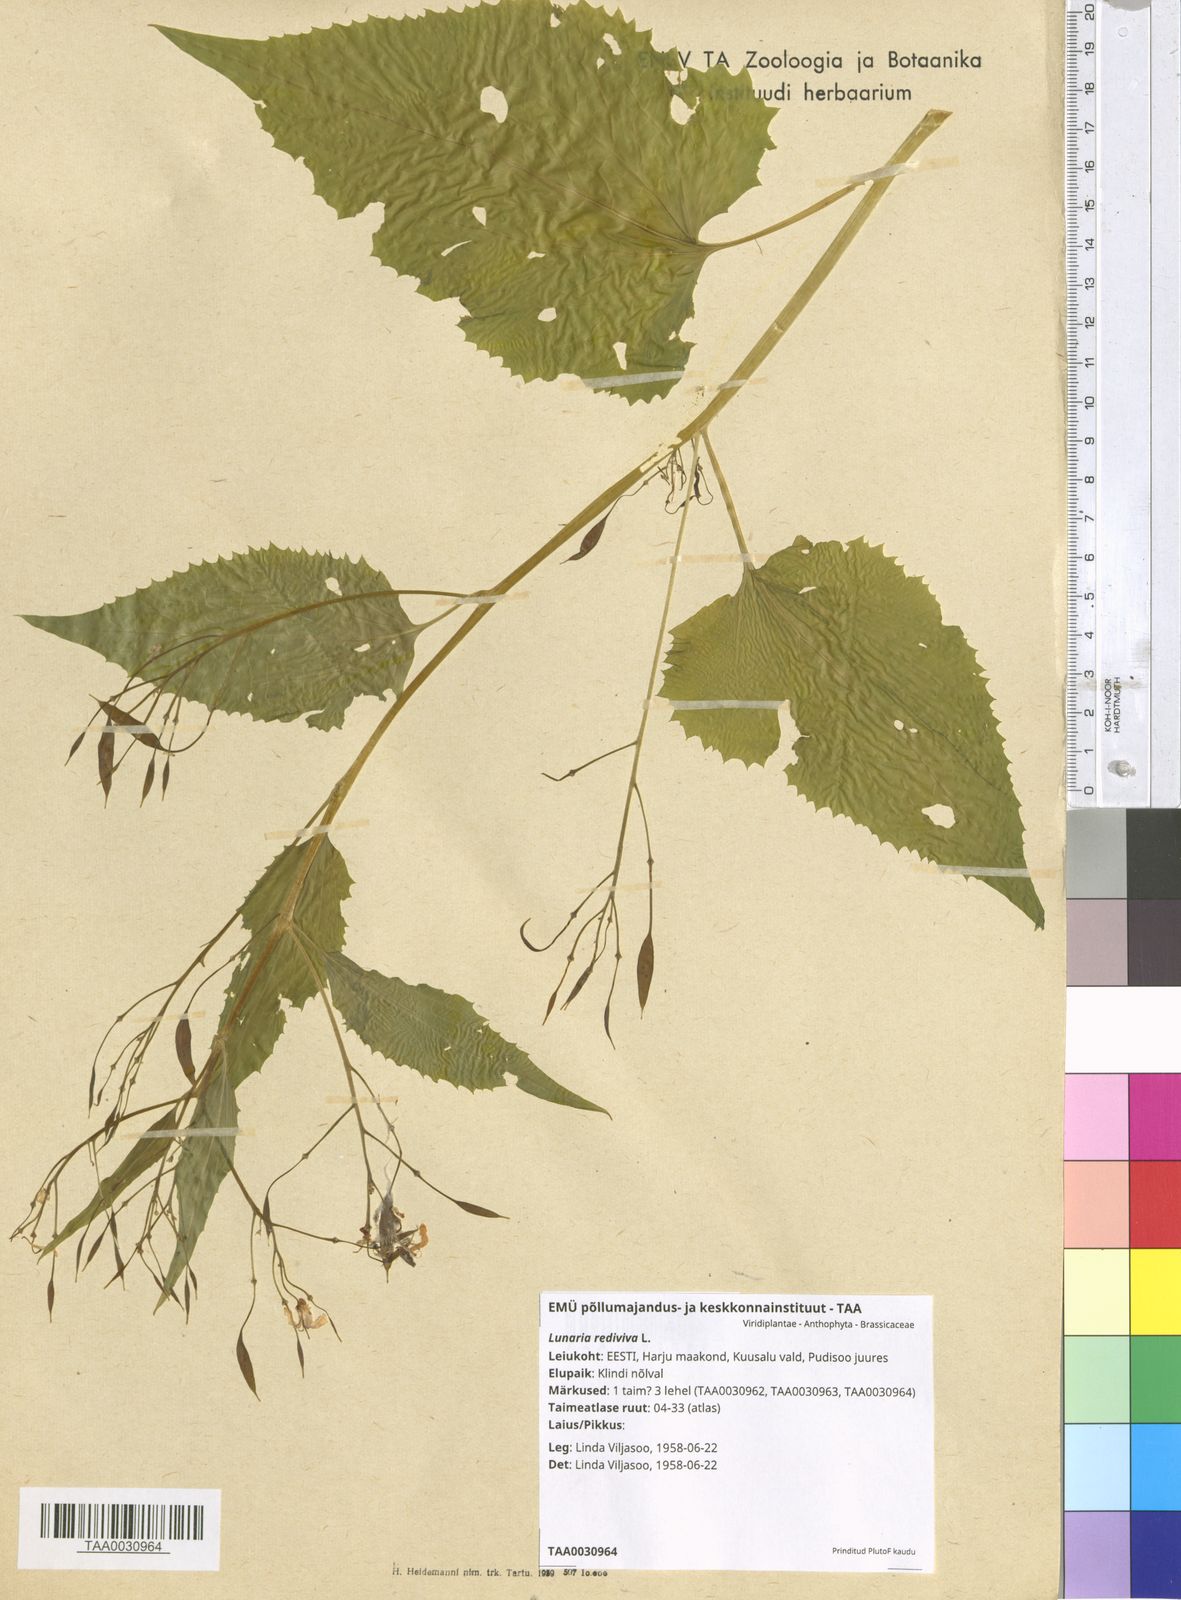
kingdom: Plantae
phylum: Tracheophyta
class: Magnoliopsida
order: Brassicales
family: Brassicaceae
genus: Lunaria
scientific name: Lunaria rediviva
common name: Perennial honesty
